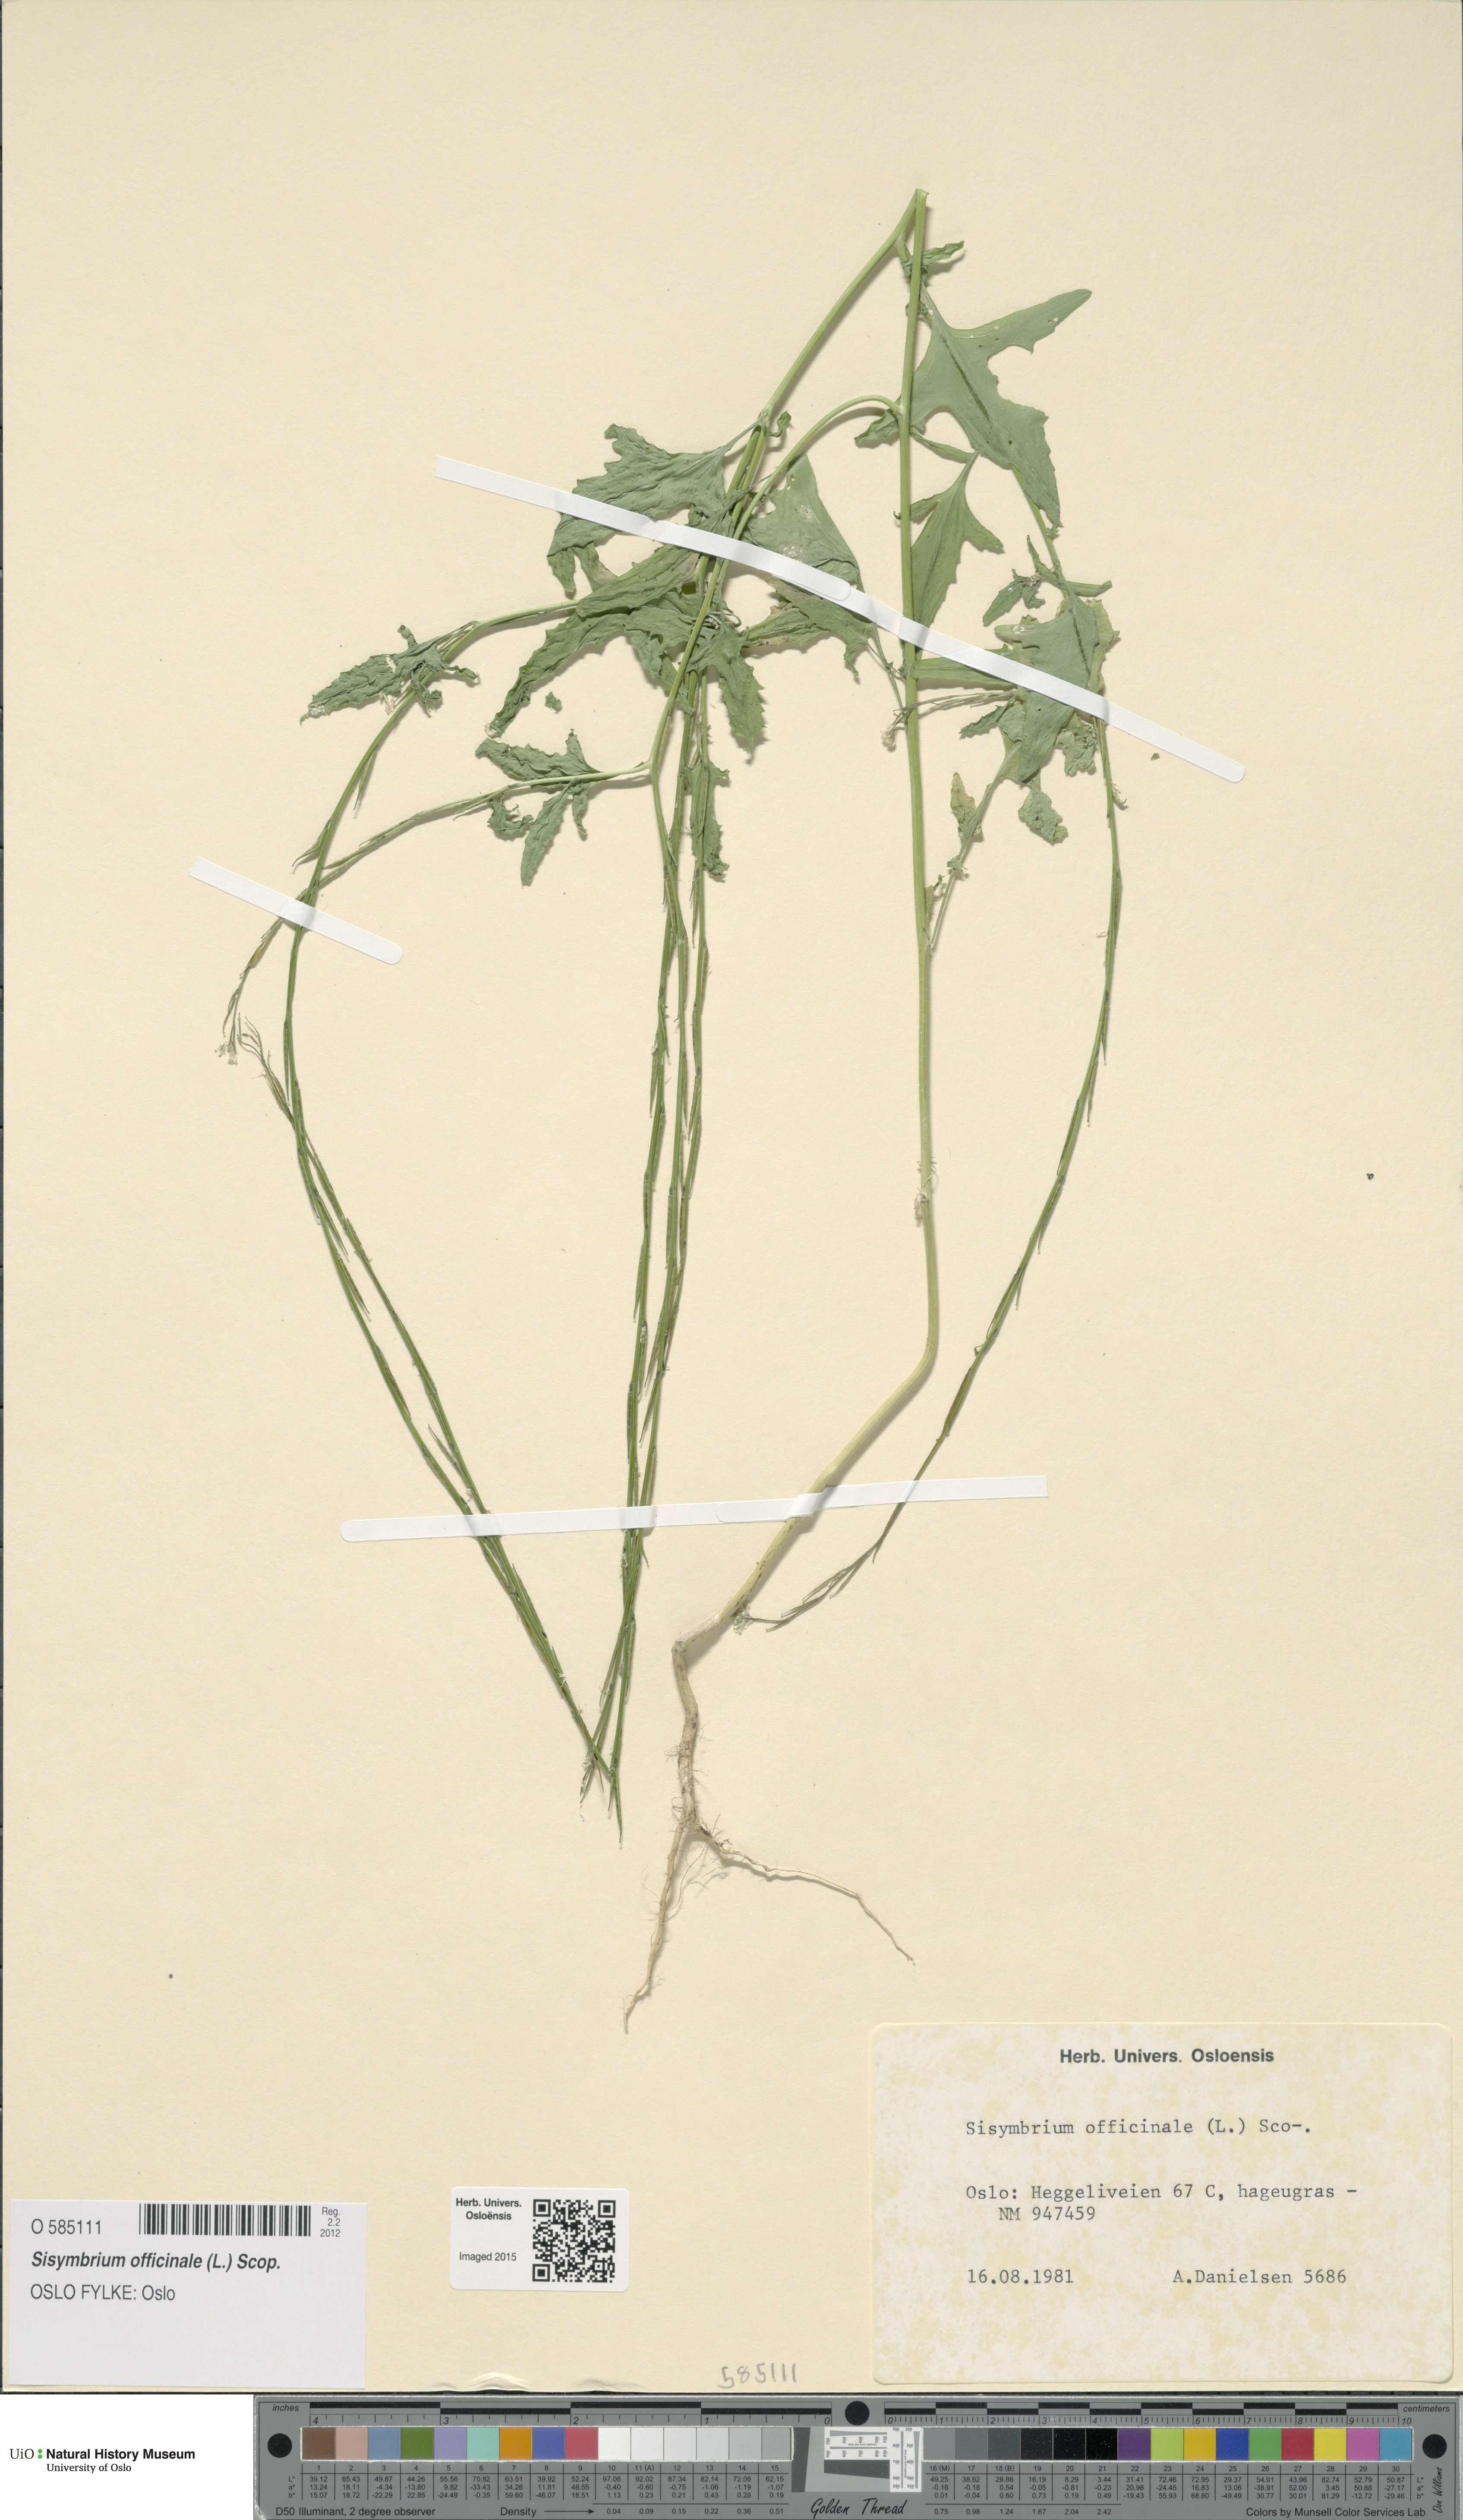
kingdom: Plantae
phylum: Tracheophyta
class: Magnoliopsida
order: Brassicales
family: Brassicaceae
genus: Sisymbrium
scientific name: Sisymbrium officinale
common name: Hedge mustard
